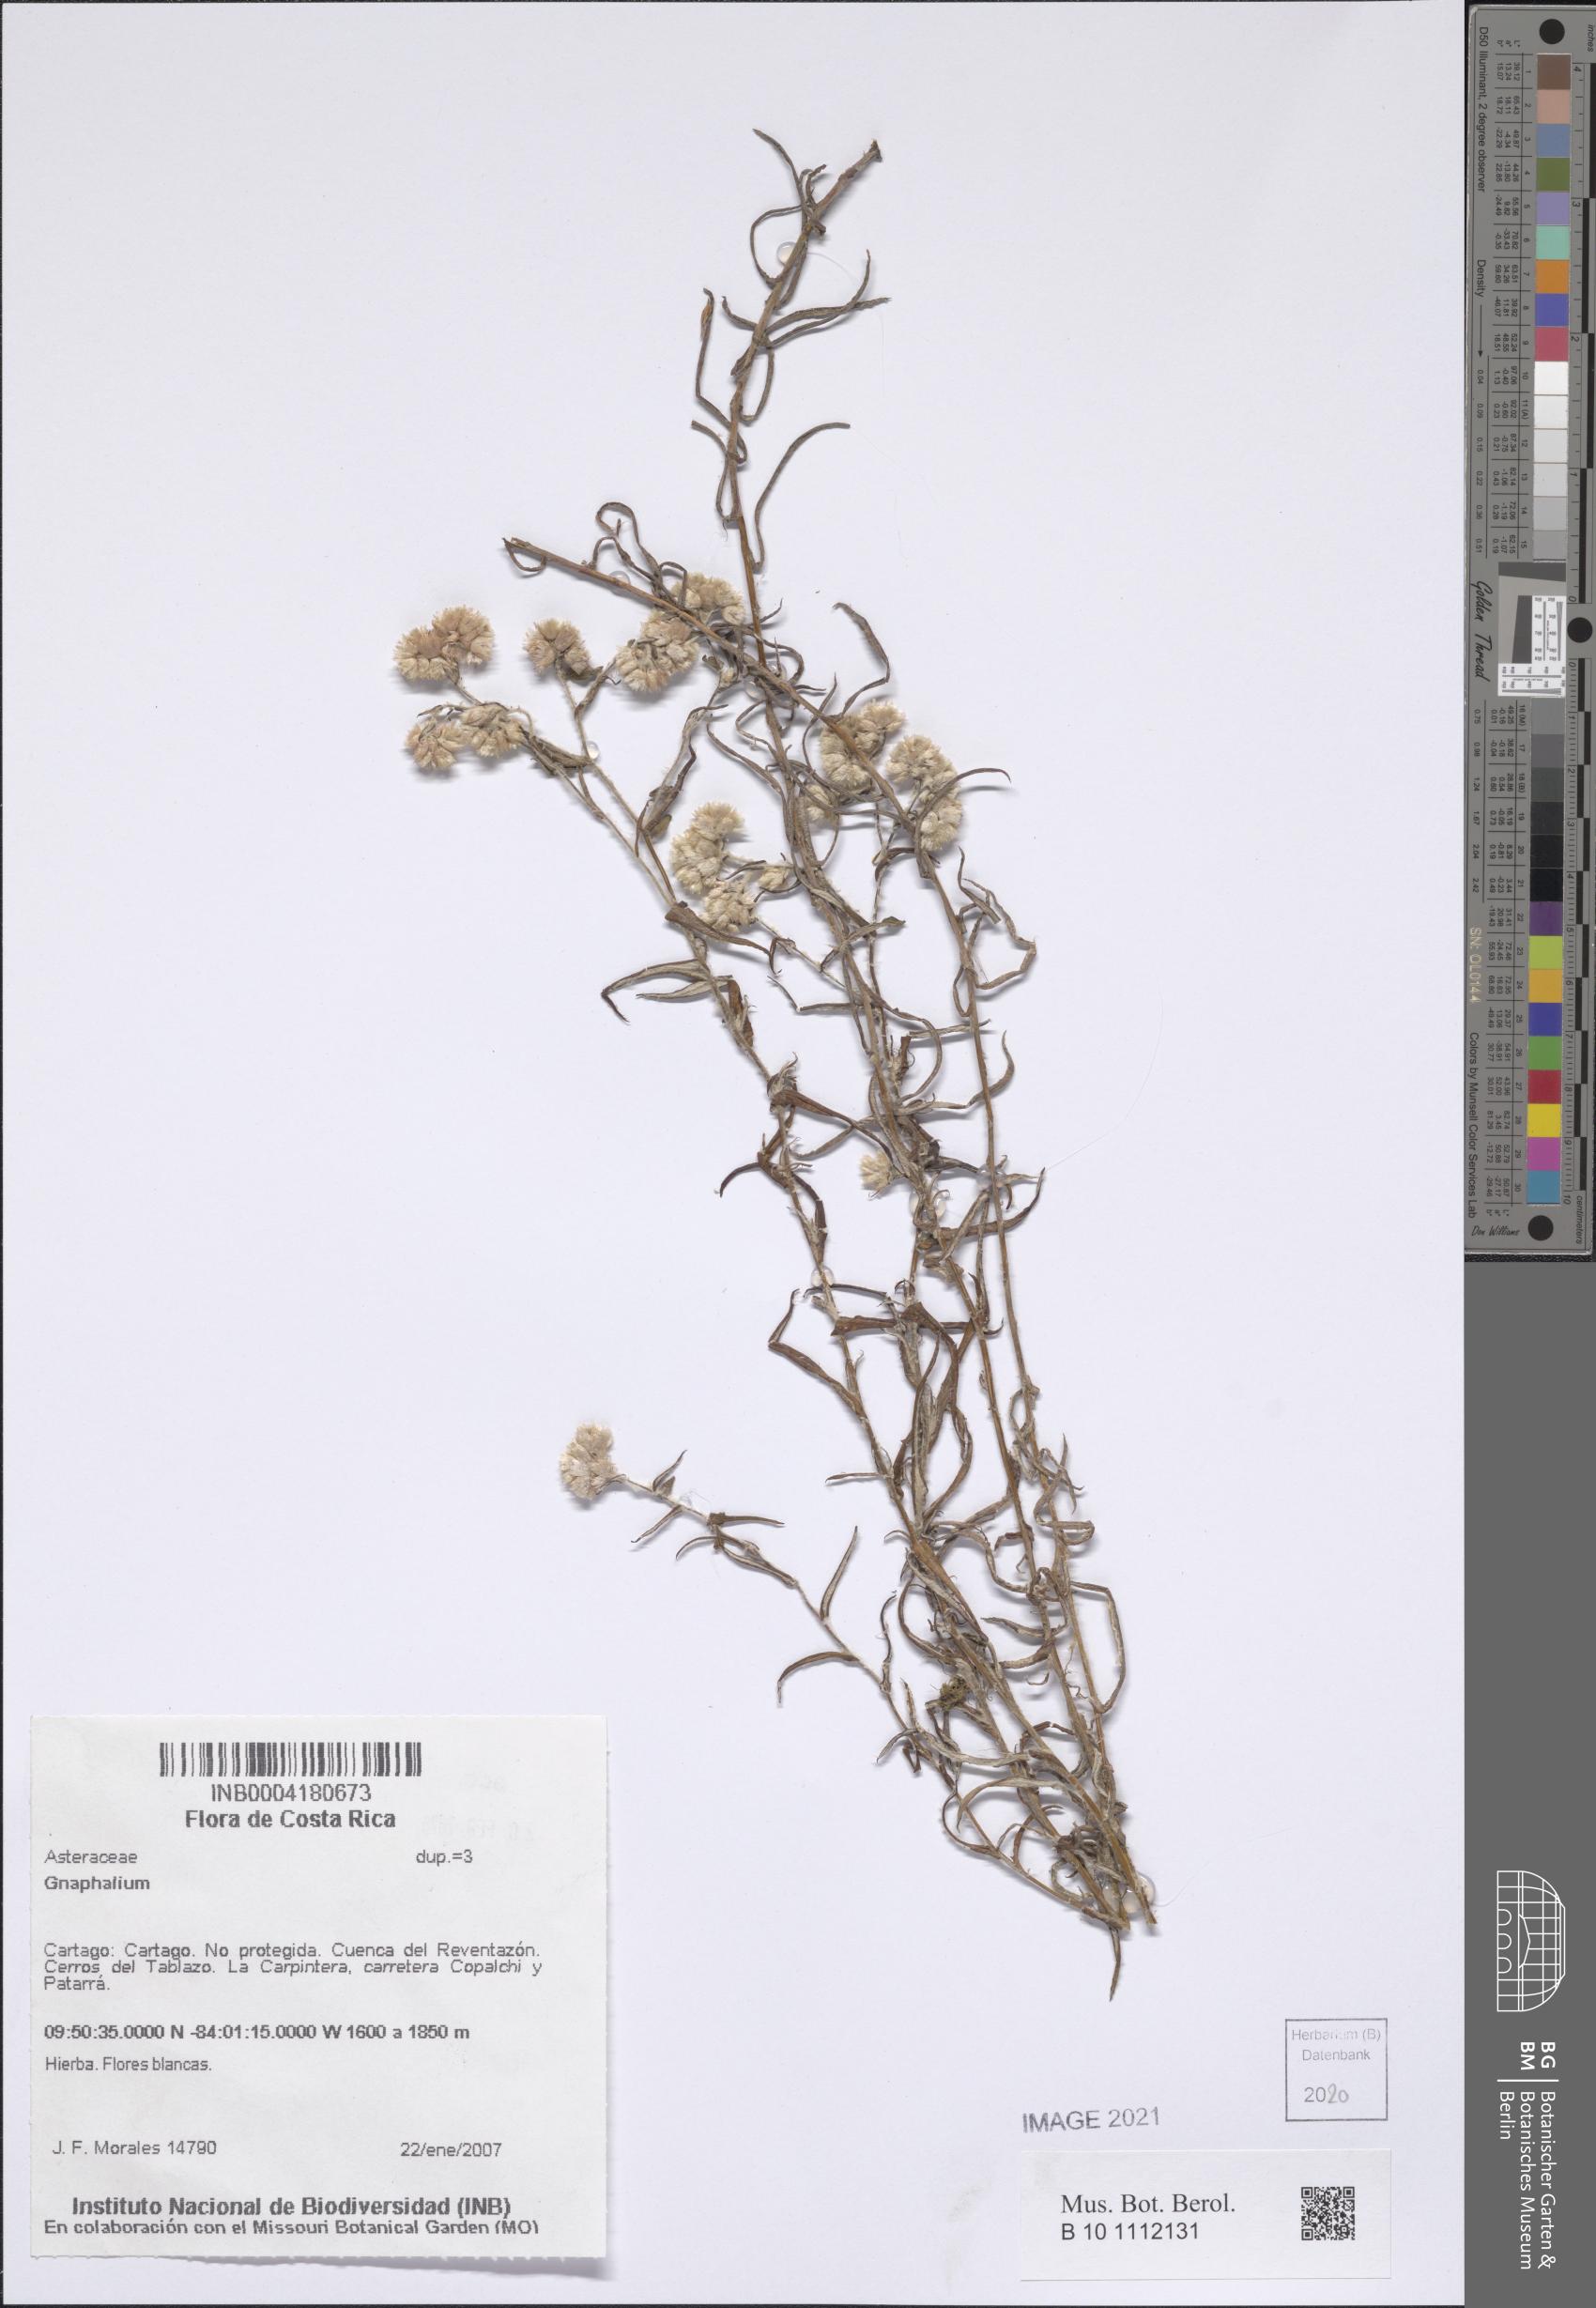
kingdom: Plantae
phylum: Tracheophyta
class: Magnoliopsida
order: Asterales
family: Asteraceae
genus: Gnaphalium
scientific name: Gnaphalium
